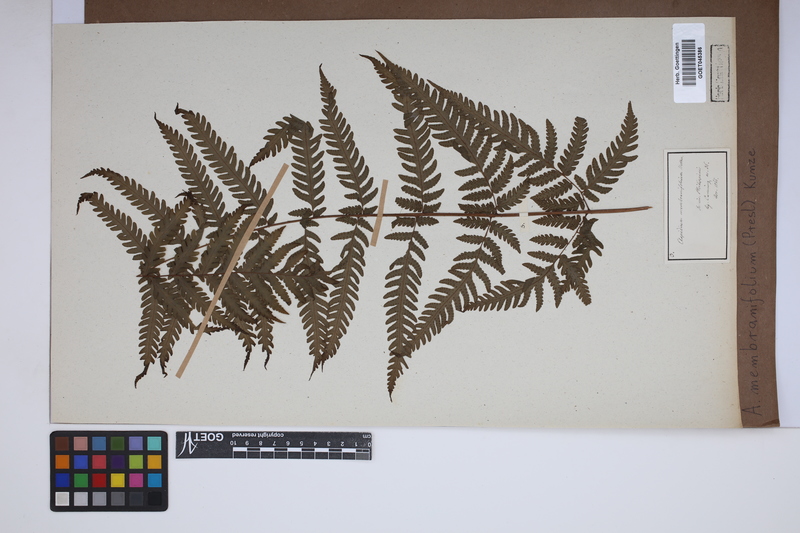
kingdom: Plantae
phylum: Tracheophyta
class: Polypodiopsida
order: Polypodiales
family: Tectariaceae
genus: Tectaria
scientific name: Tectaria dissecta
